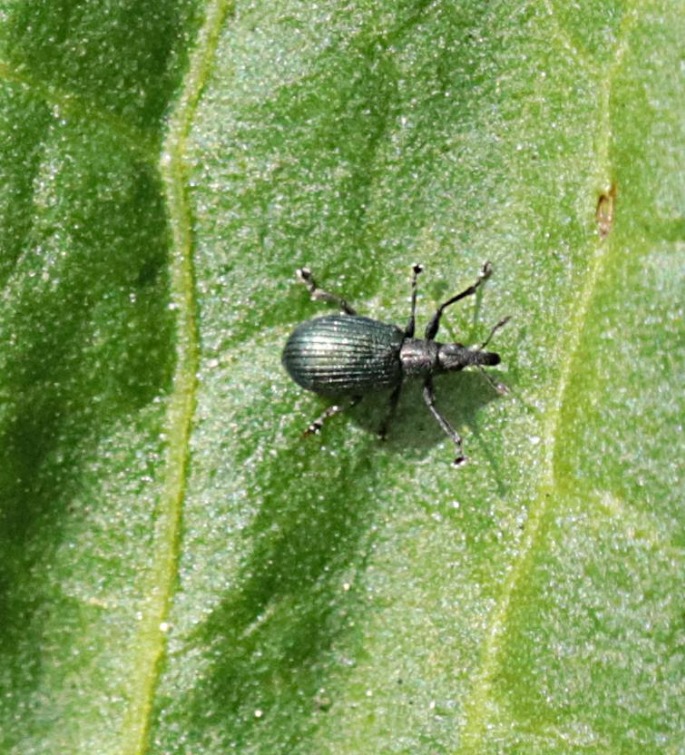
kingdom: Animalia
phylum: Arthropoda
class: Insecta
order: Coleoptera
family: Brentidae
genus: Perapion
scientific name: Perapion hydrolapathi
